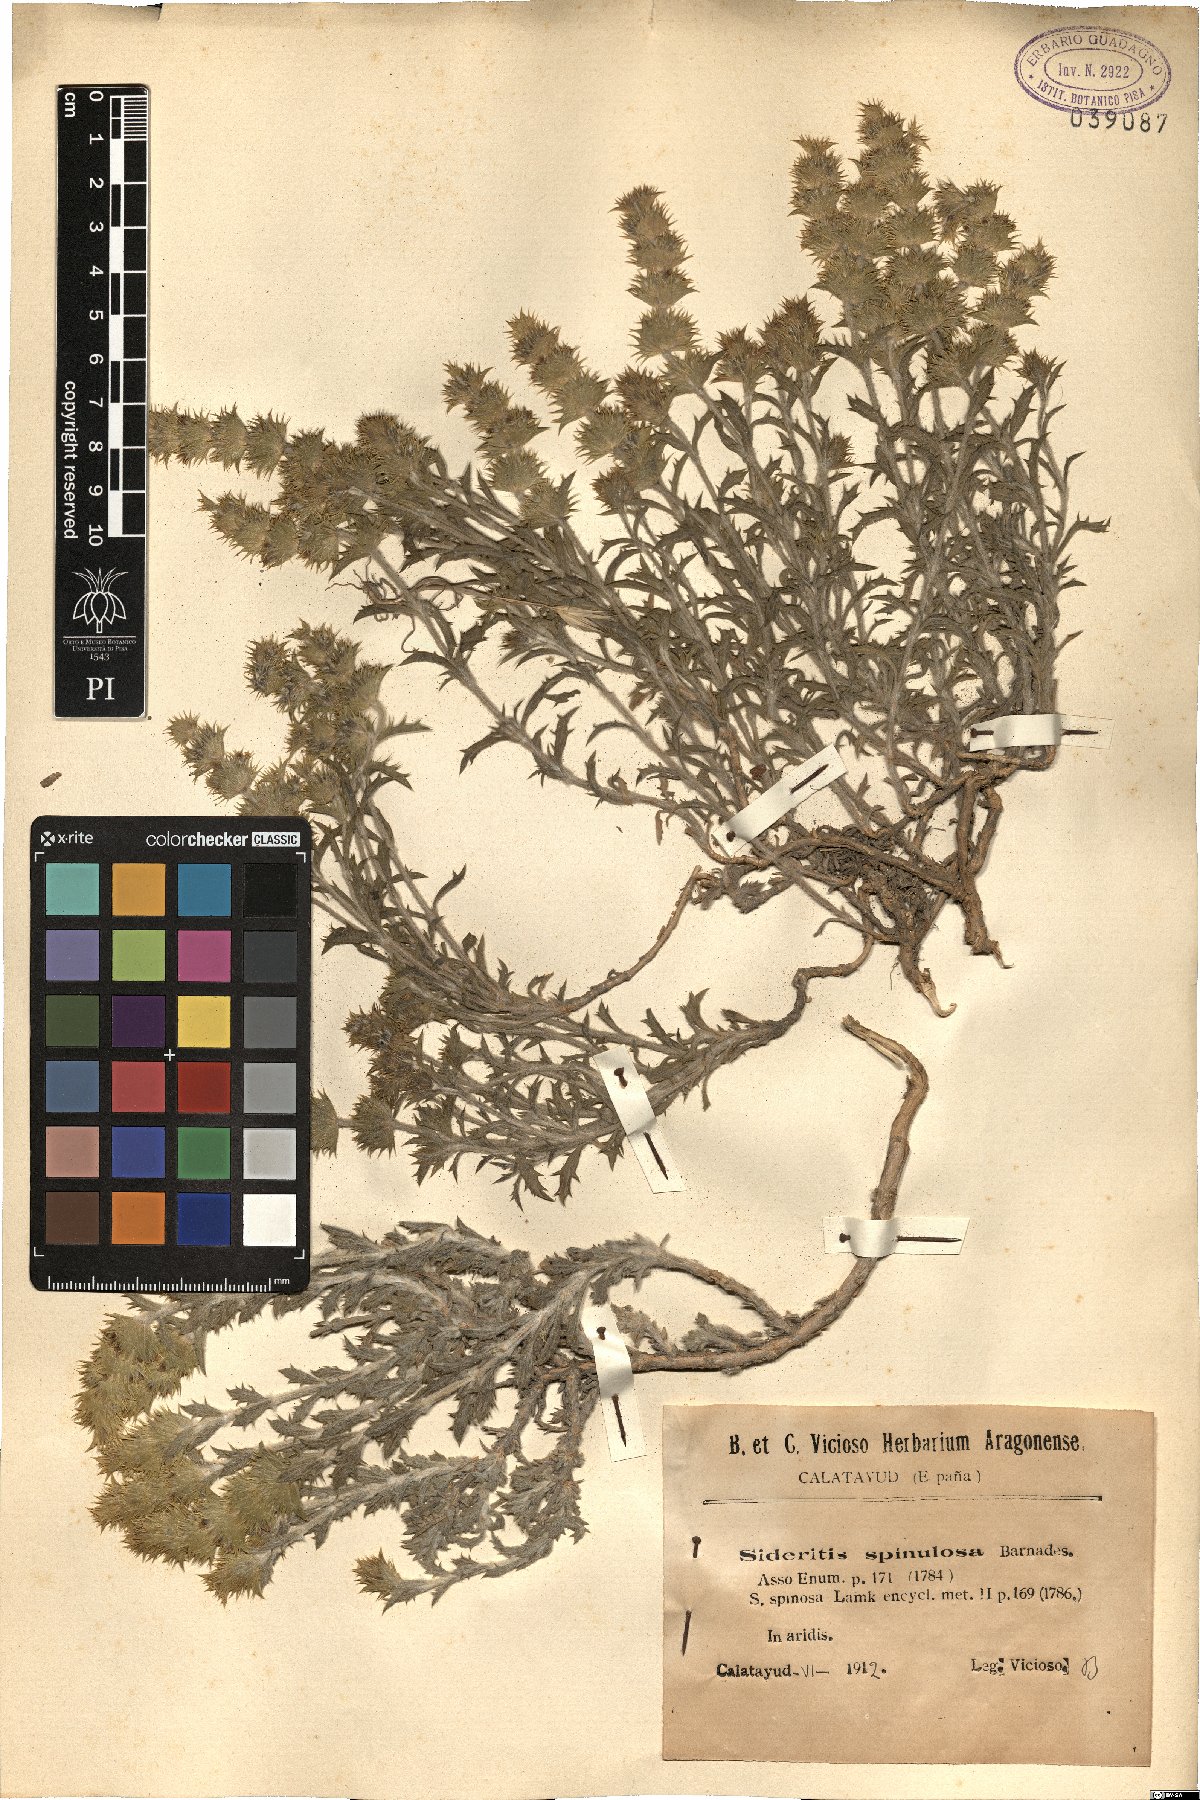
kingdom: Plantae
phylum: Tracheophyta
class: Magnoliopsida
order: Lamiales
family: Lamiaceae
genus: Sideritis
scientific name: Sideritis spinulosa
